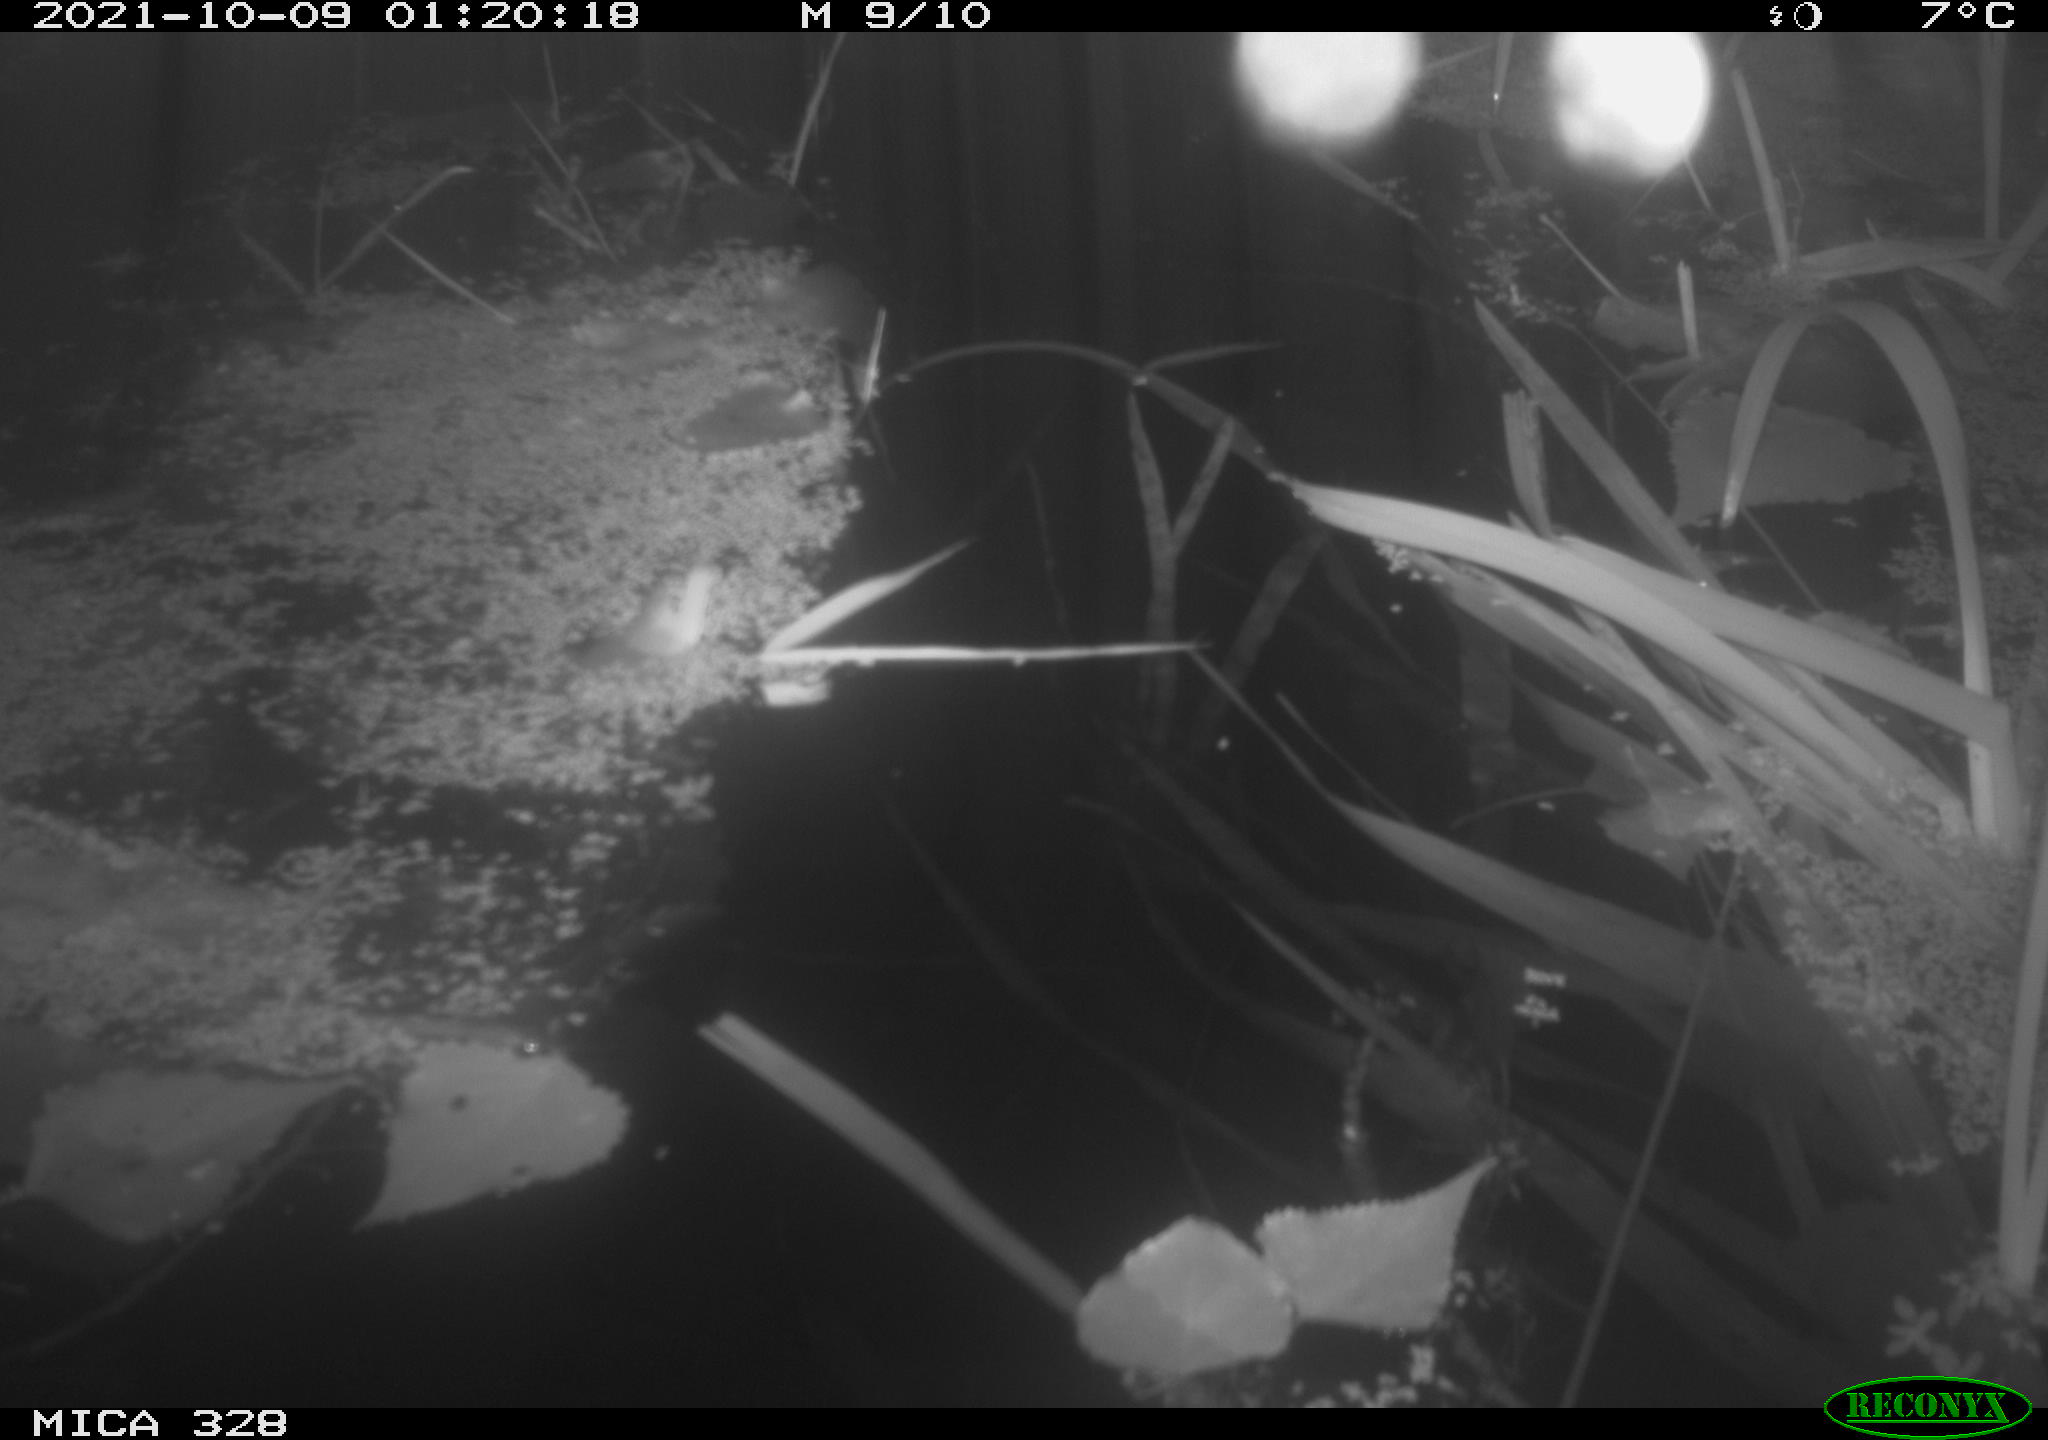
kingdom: Animalia
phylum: Chordata
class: Mammalia
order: Rodentia
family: Cricetidae
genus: Ondatra
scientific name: Ondatra zibethicus
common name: Muskrat
